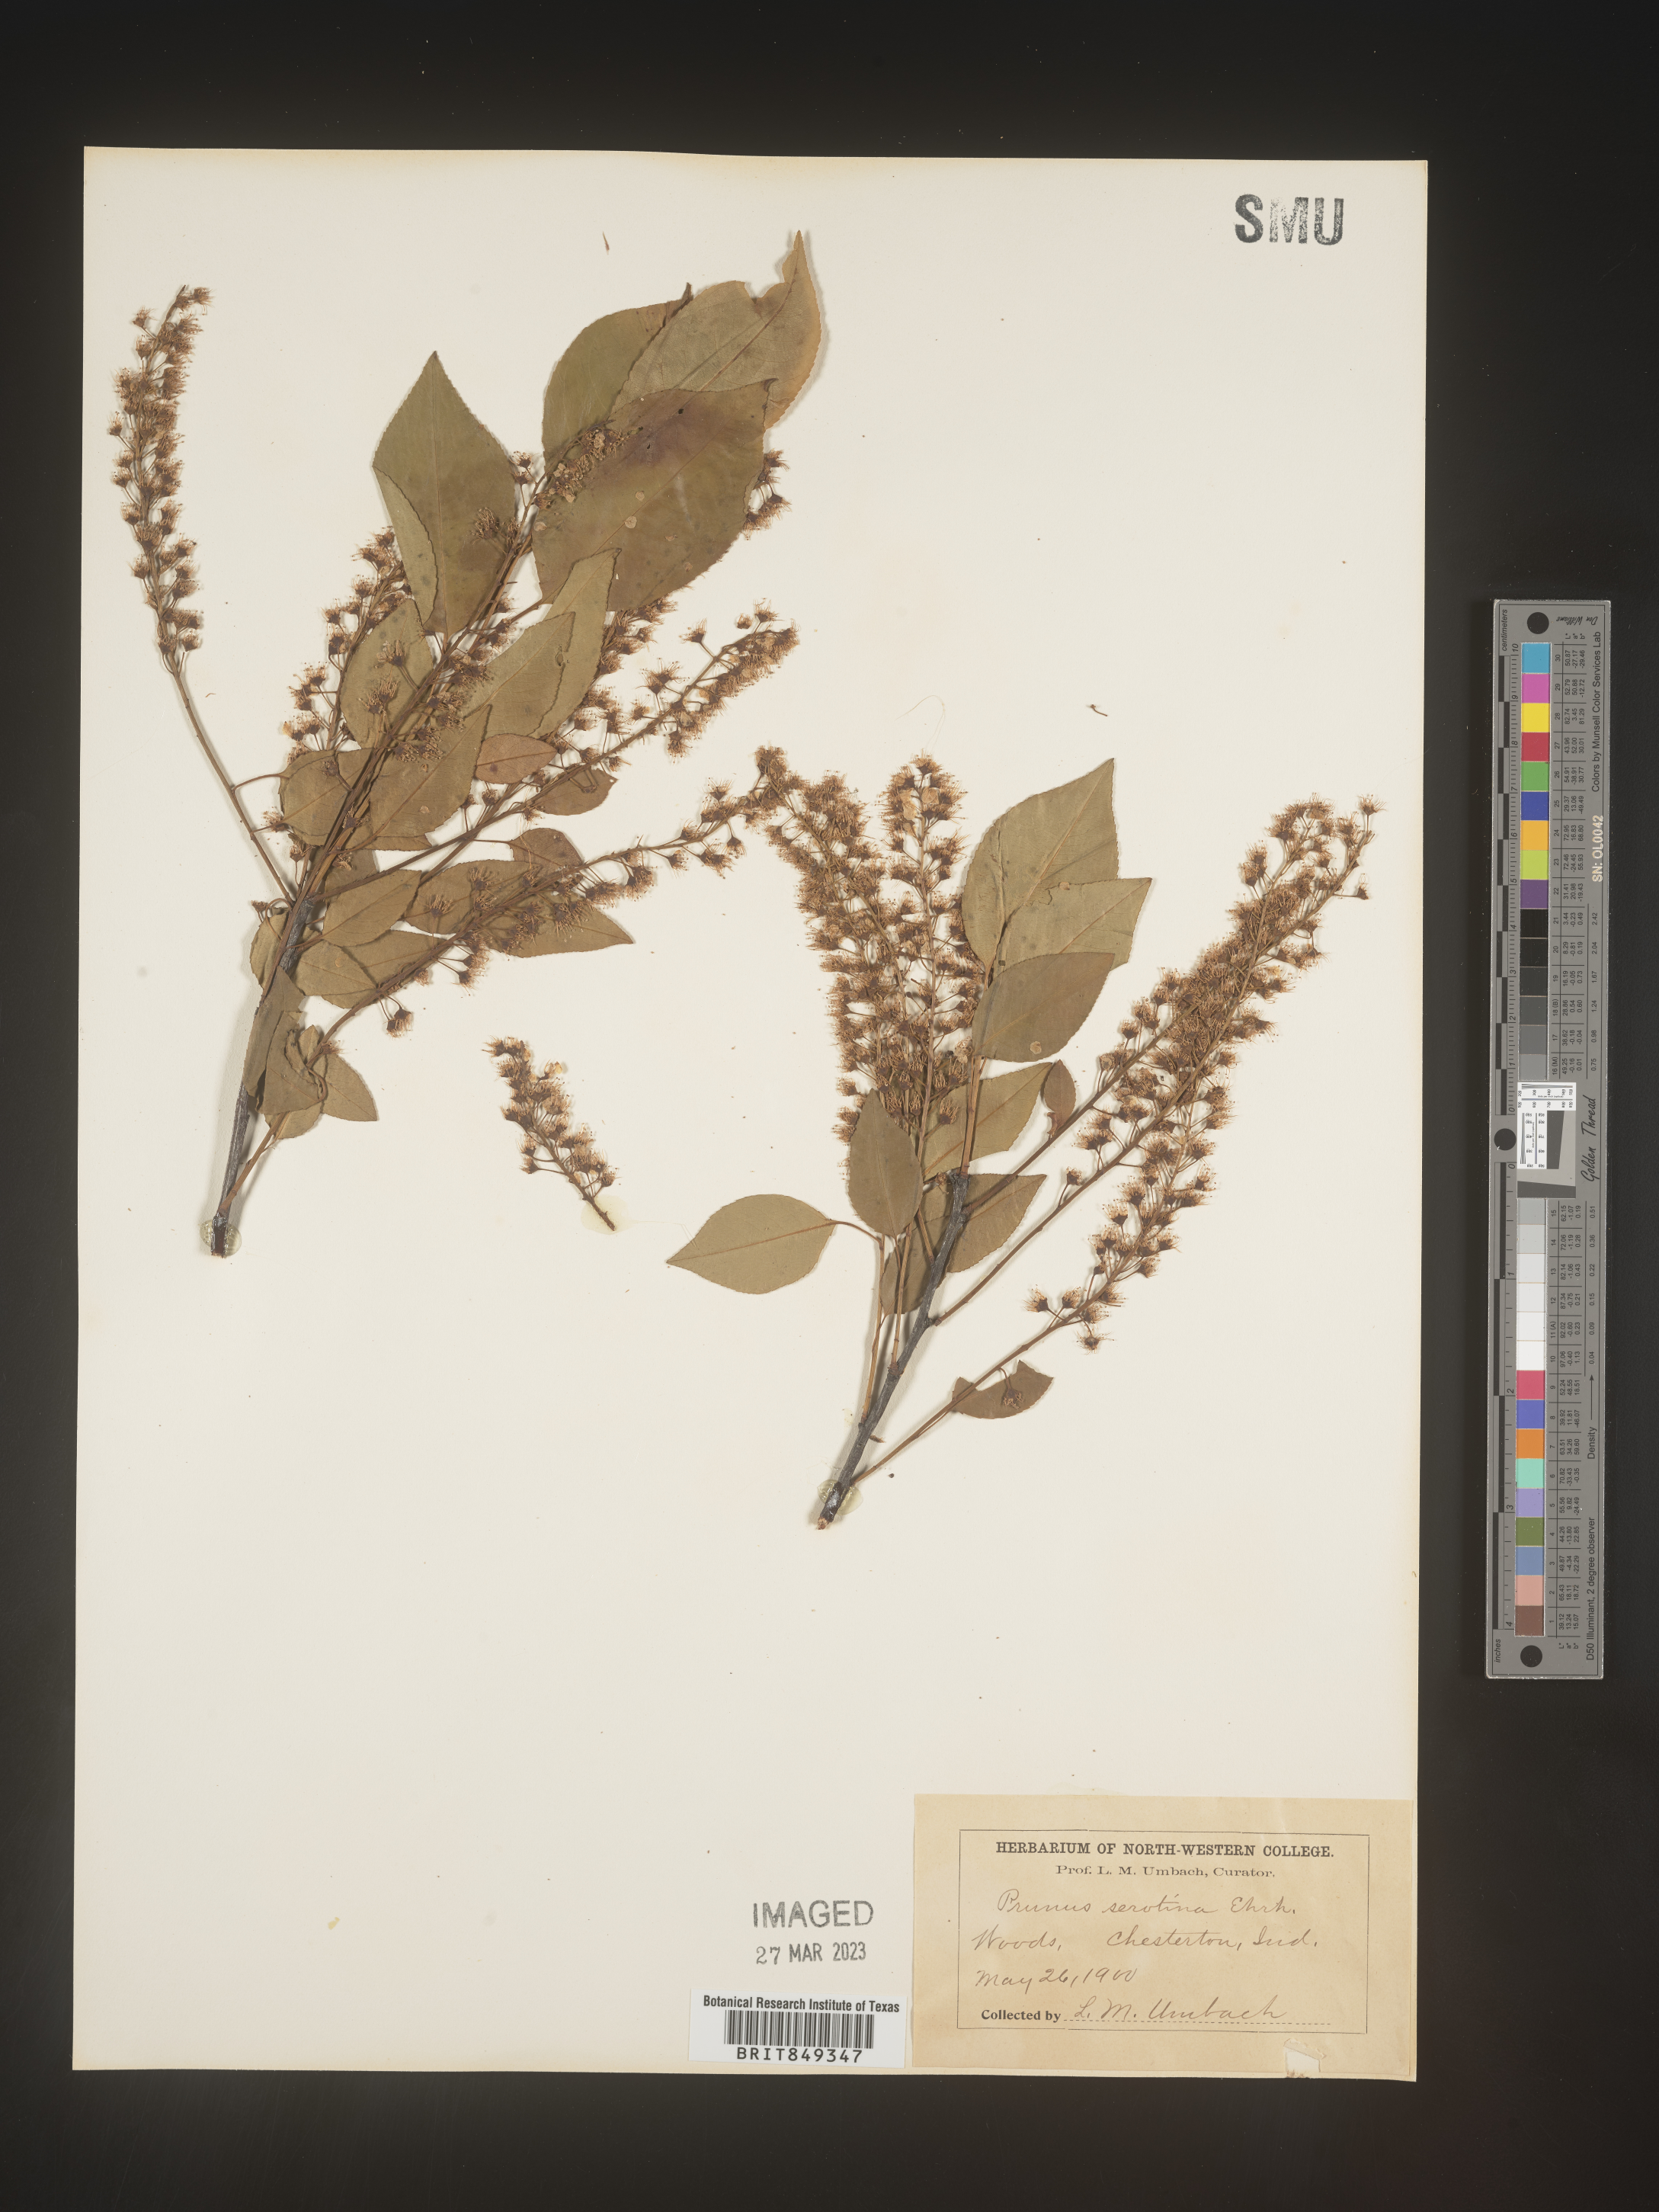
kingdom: Plantae
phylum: Tracheophyta
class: Magnoliopsida
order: Rosales
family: Rosaceae
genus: Prunus
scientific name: Prunus serotina
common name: Black cherry
